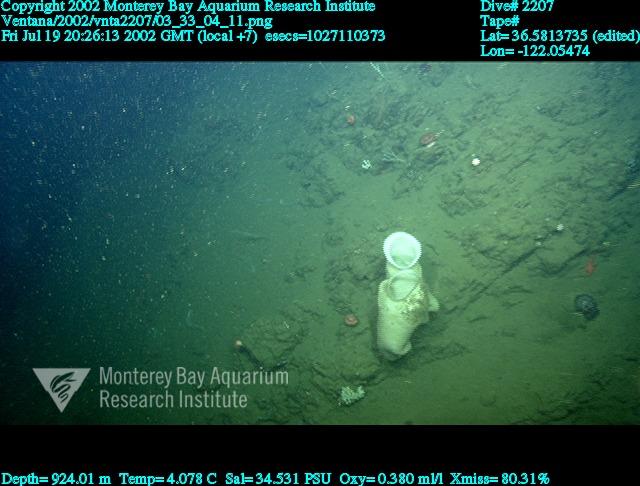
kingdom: Animalia
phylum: Porifera
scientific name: Porifera
